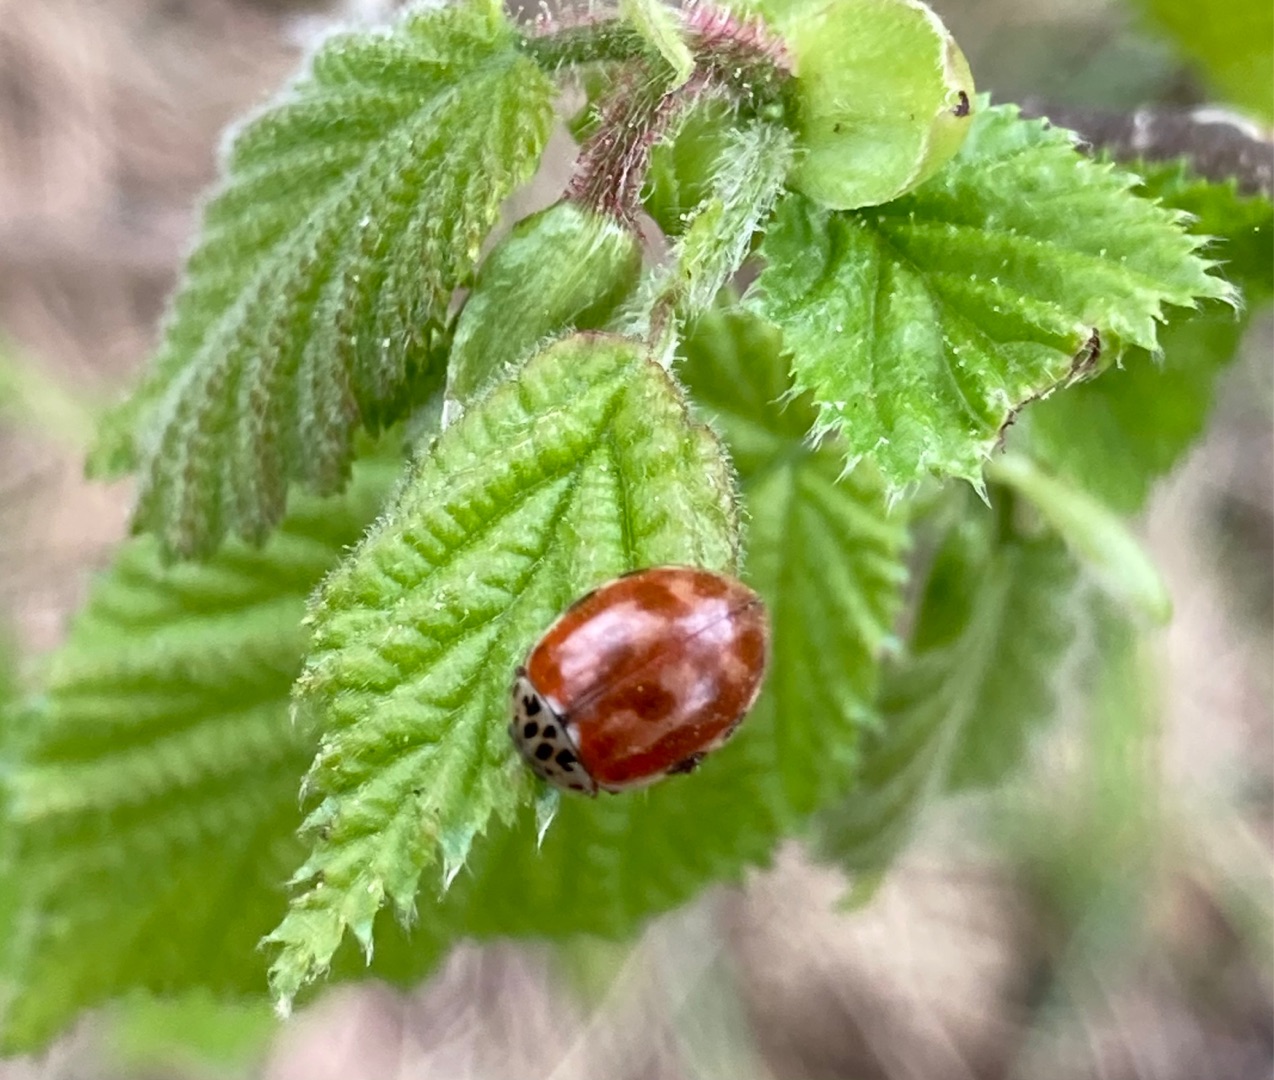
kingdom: Animalia
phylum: Arthropoda
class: Insecta
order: Coleoptera
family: Coccinellidae
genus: Harmonia
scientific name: Harmonia quadripunctata
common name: Gulrød mariehøne
